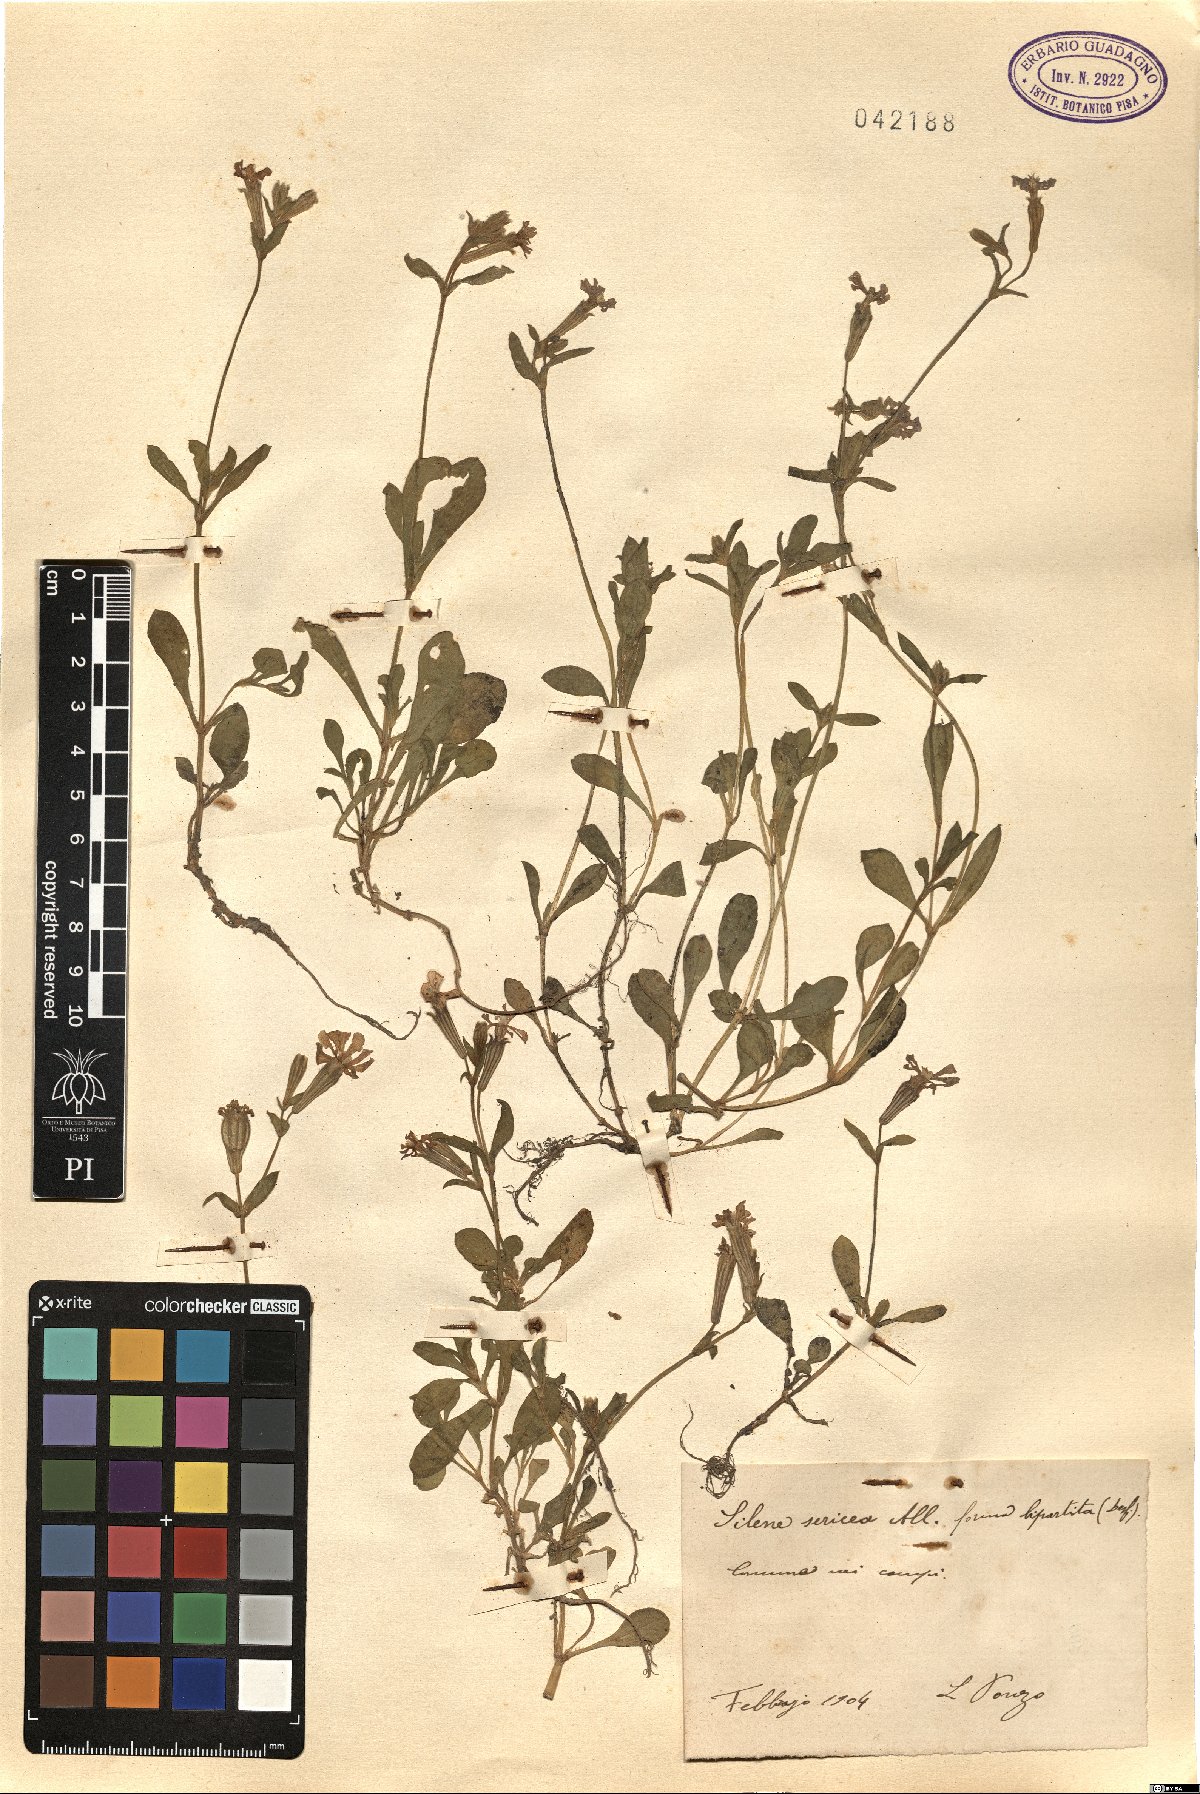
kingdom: Plantae
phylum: Tracheophyta
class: Magnoliopsida
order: Caryophyllales
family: Caryophyllaceae
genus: Silene
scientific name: Silene sericea
